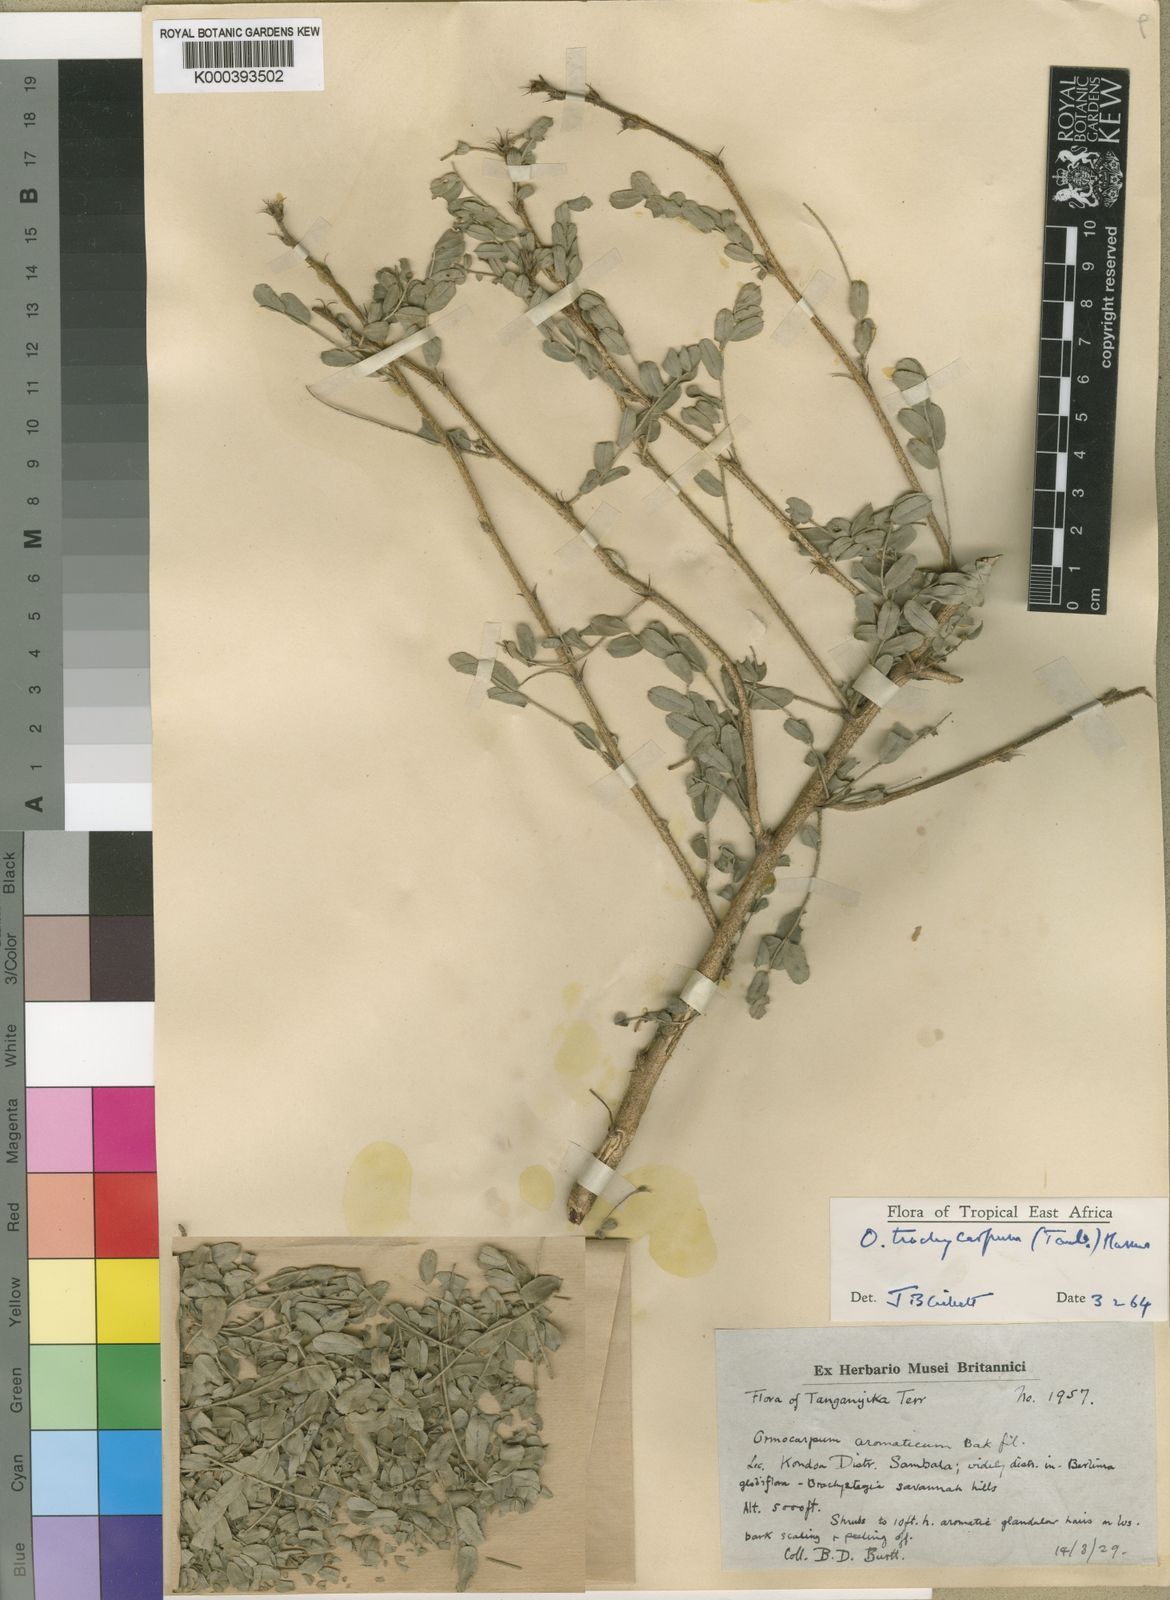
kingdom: Plantae
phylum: Tracheophyta
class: Magnoliopsida
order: Fabales
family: Fabaceae
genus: Ormocarpum
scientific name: Ormocarpum trachycarpum
